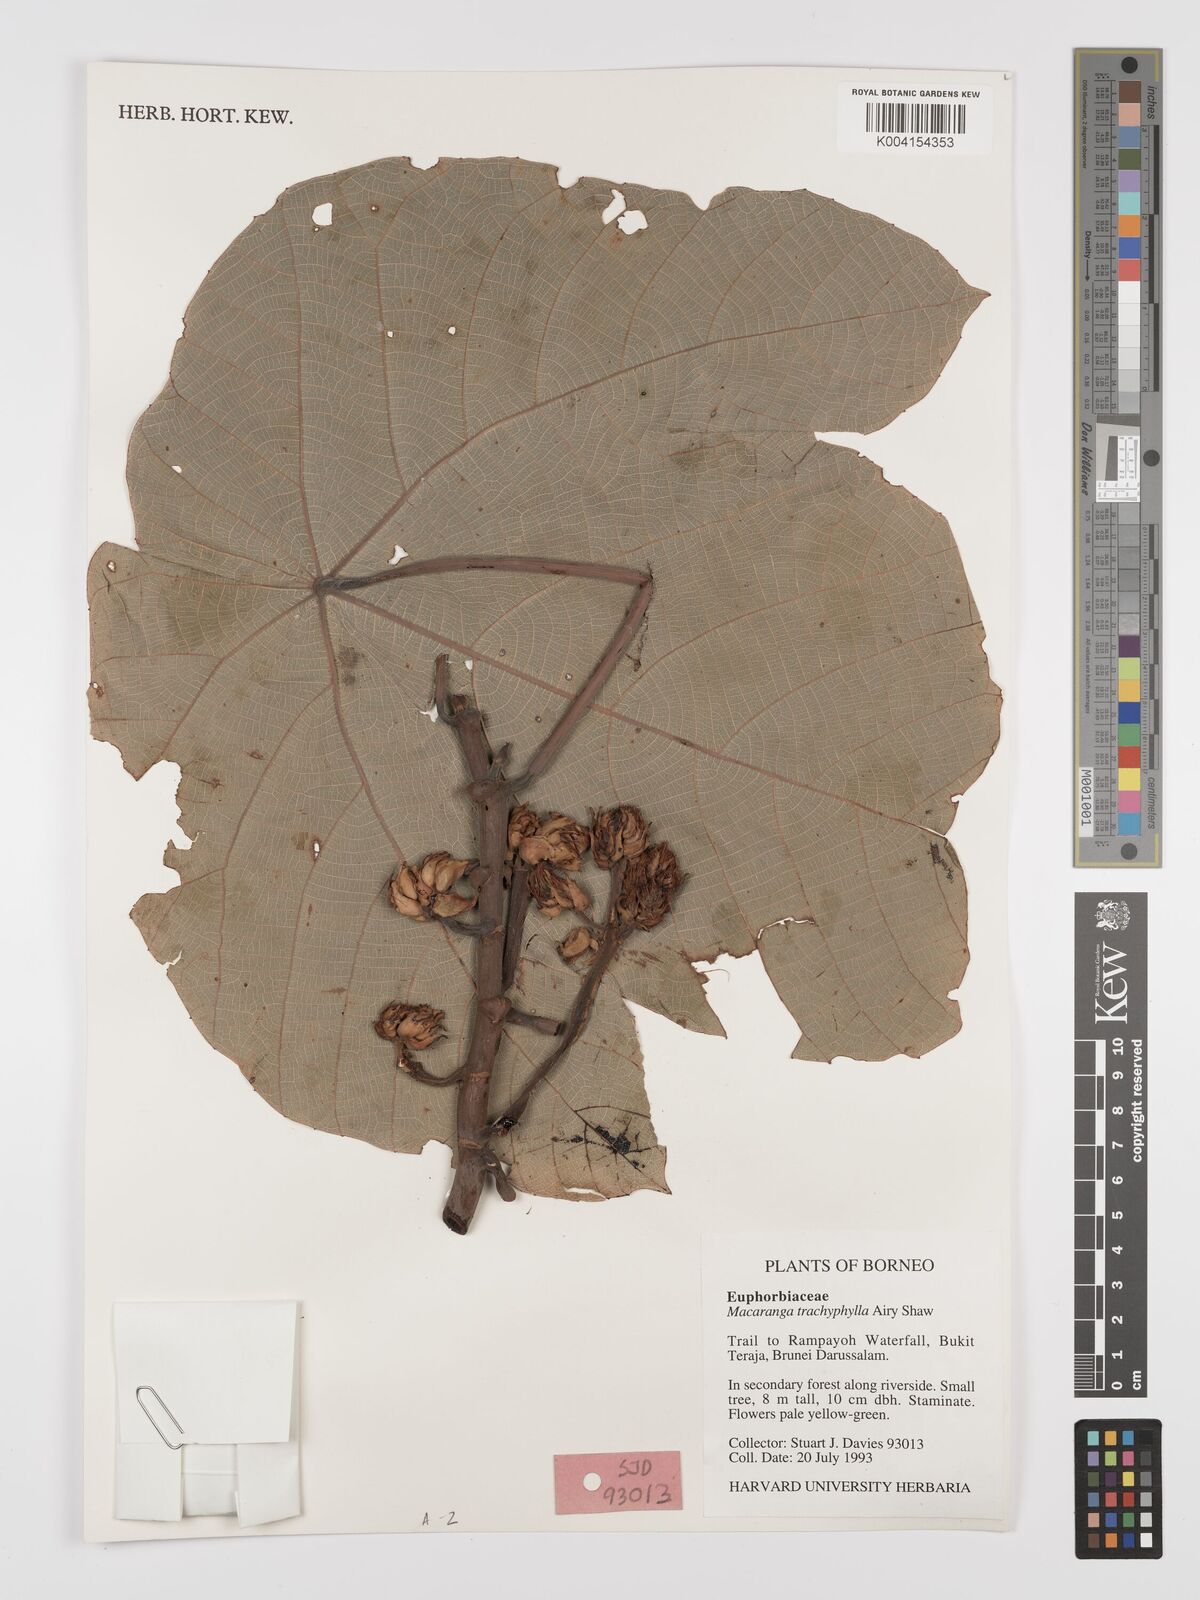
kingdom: Plantae
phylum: Tracheophyta
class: Magnoliopsida
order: Malpighiales
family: Euphorbiaceae
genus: Macaranga
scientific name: Macaranga trachyphylla
